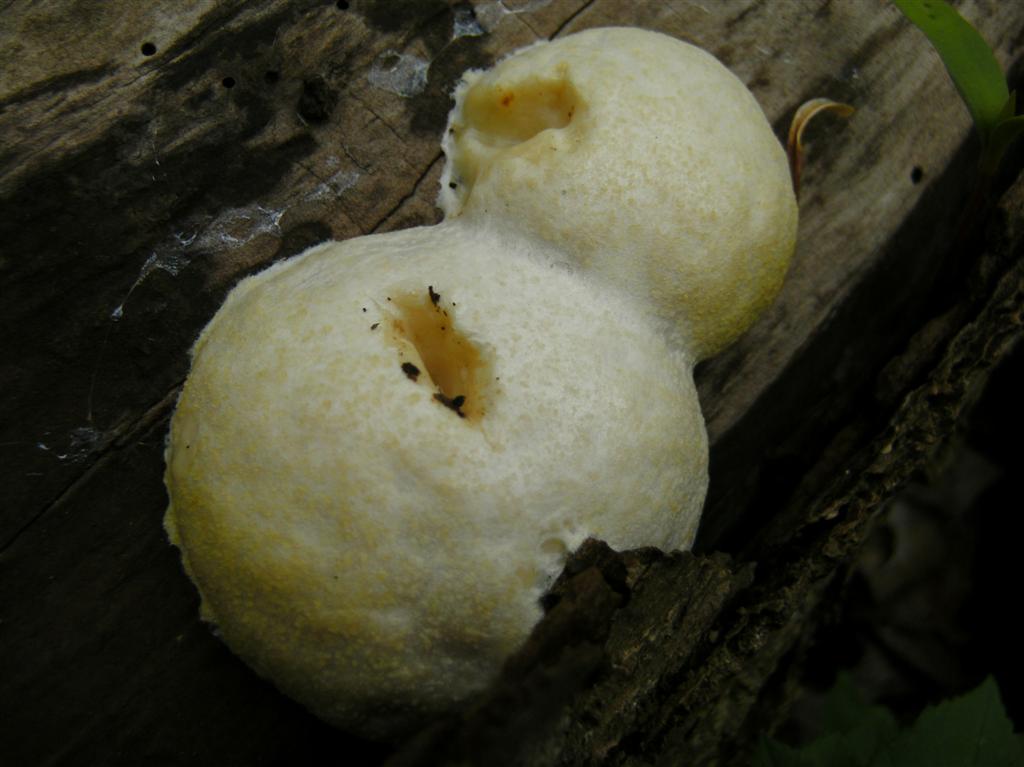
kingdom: Protozoa
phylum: Mycetozoa
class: Myxomycetes
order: Cribrariales
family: Tubiferaceae
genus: Reticularia
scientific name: Reticularia lycoperdon
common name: skinnende støvpude
